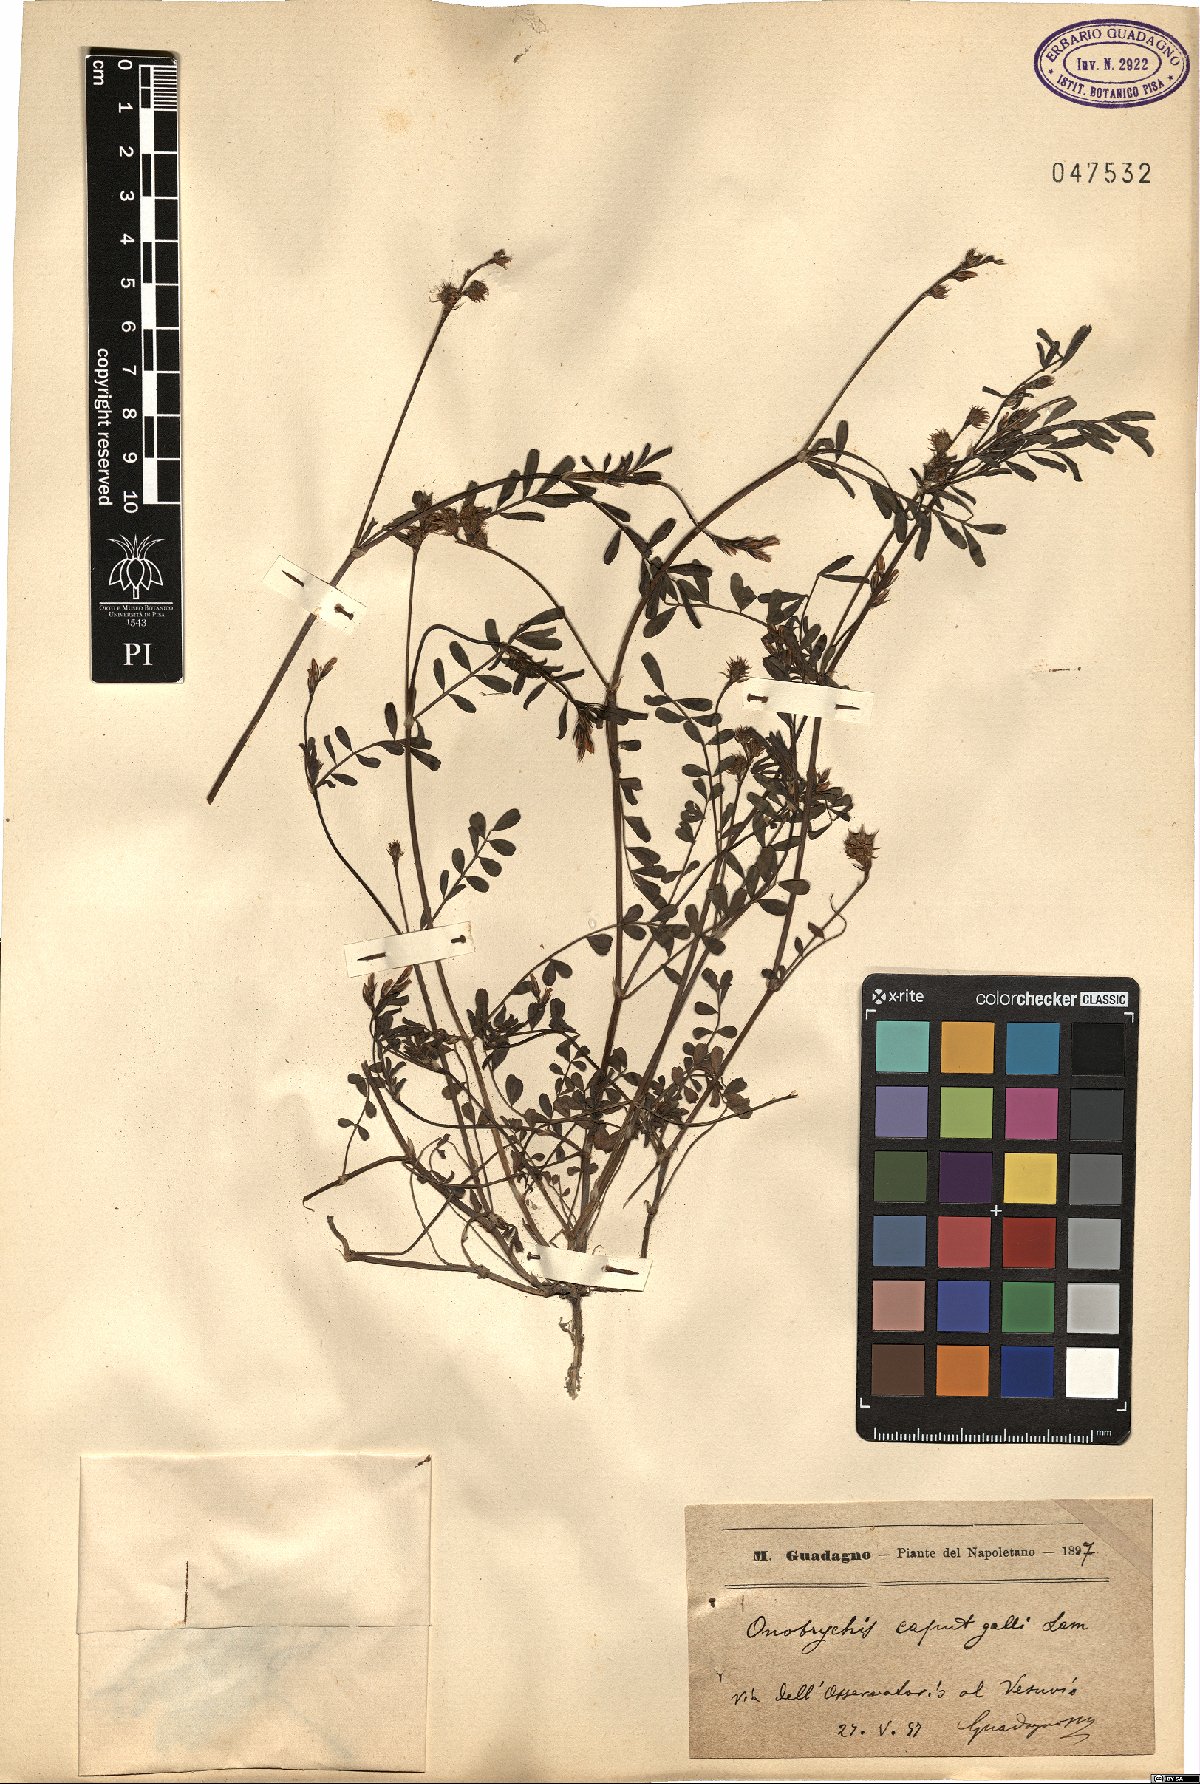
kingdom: Plantae
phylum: Tracheophyta
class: Magnoliopsida
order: Fabales
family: Fabaceae
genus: Onobrychis
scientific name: Onobrychis caput-galli
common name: Cockscomb sainfoin
